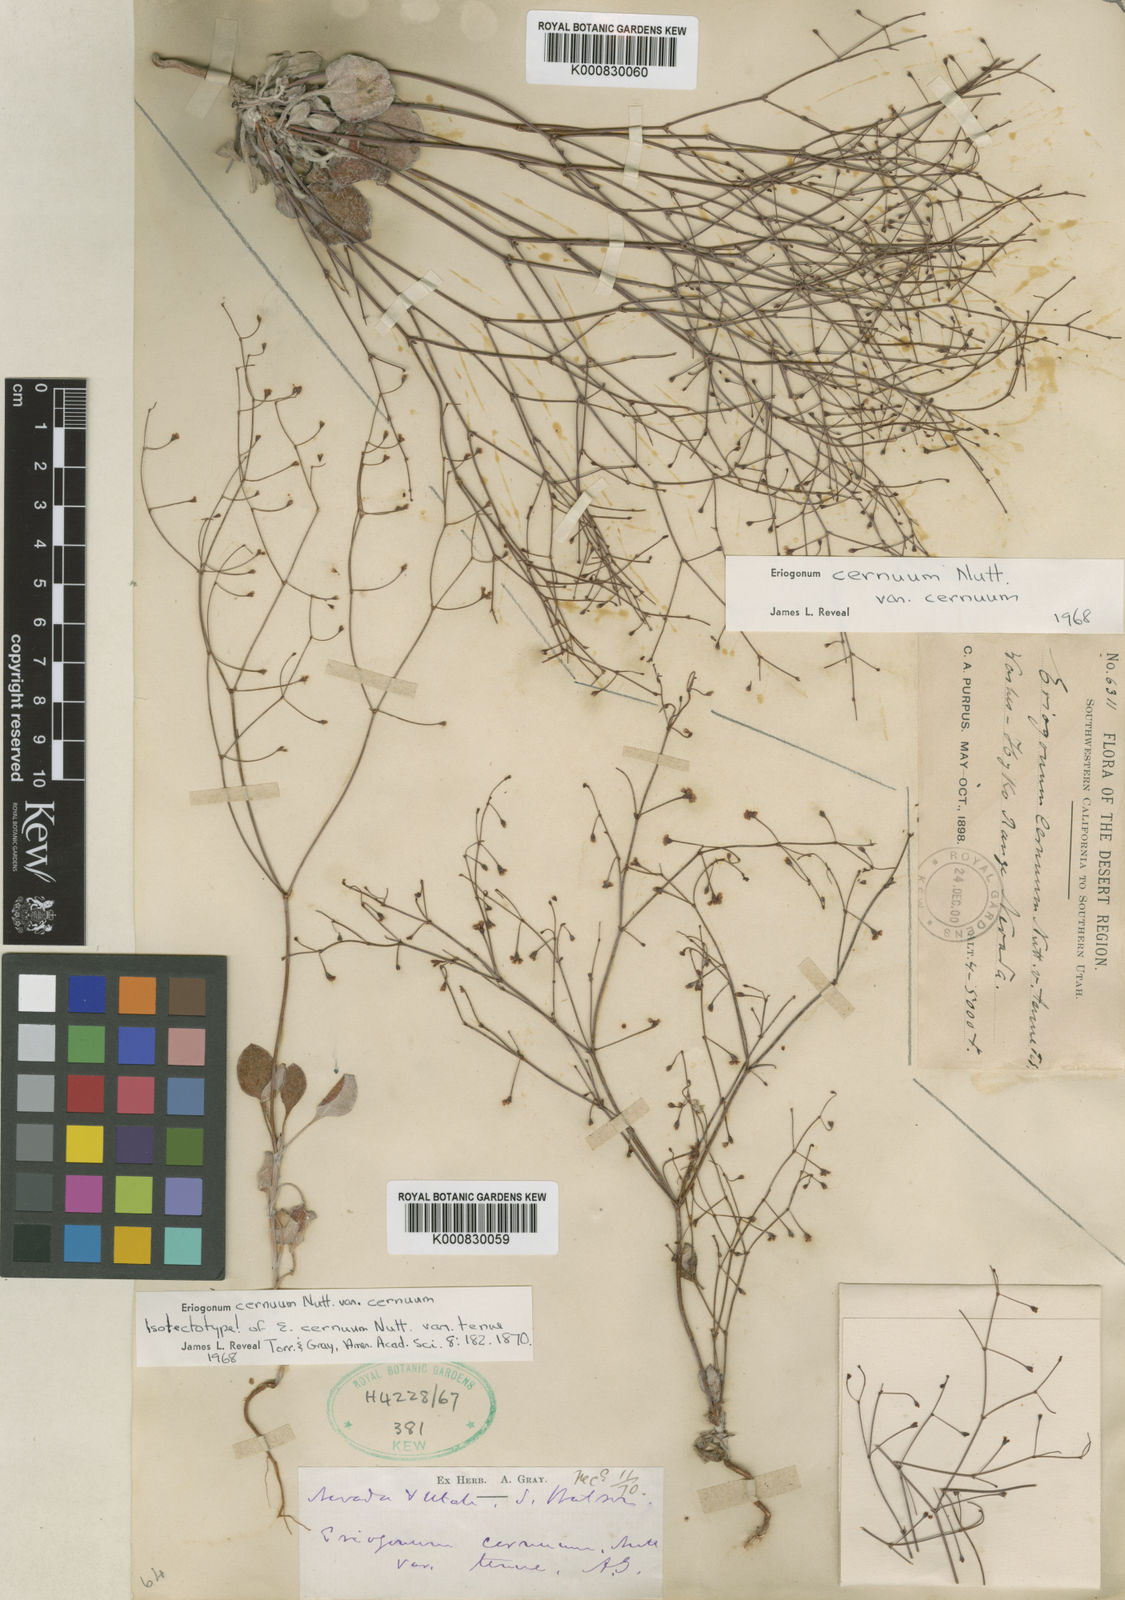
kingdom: Plantae
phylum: Tracheophyta
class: Magnoliopsida
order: Caryophyllales
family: Polygonaceae
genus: Eriogonum
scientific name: Eriogonum cernuum
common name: Nodding wild buckwheat
